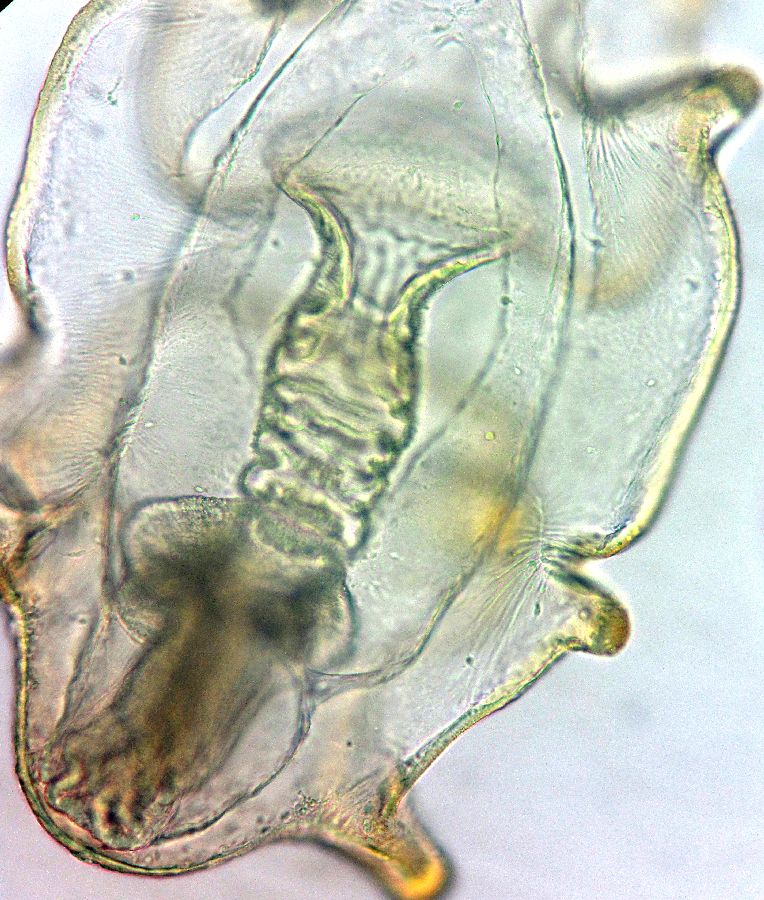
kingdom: Animalia
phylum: Echinodermata
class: Asteroidea
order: Forcipulatida
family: Asteriidae
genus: Asterias
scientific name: Asterias rubens
